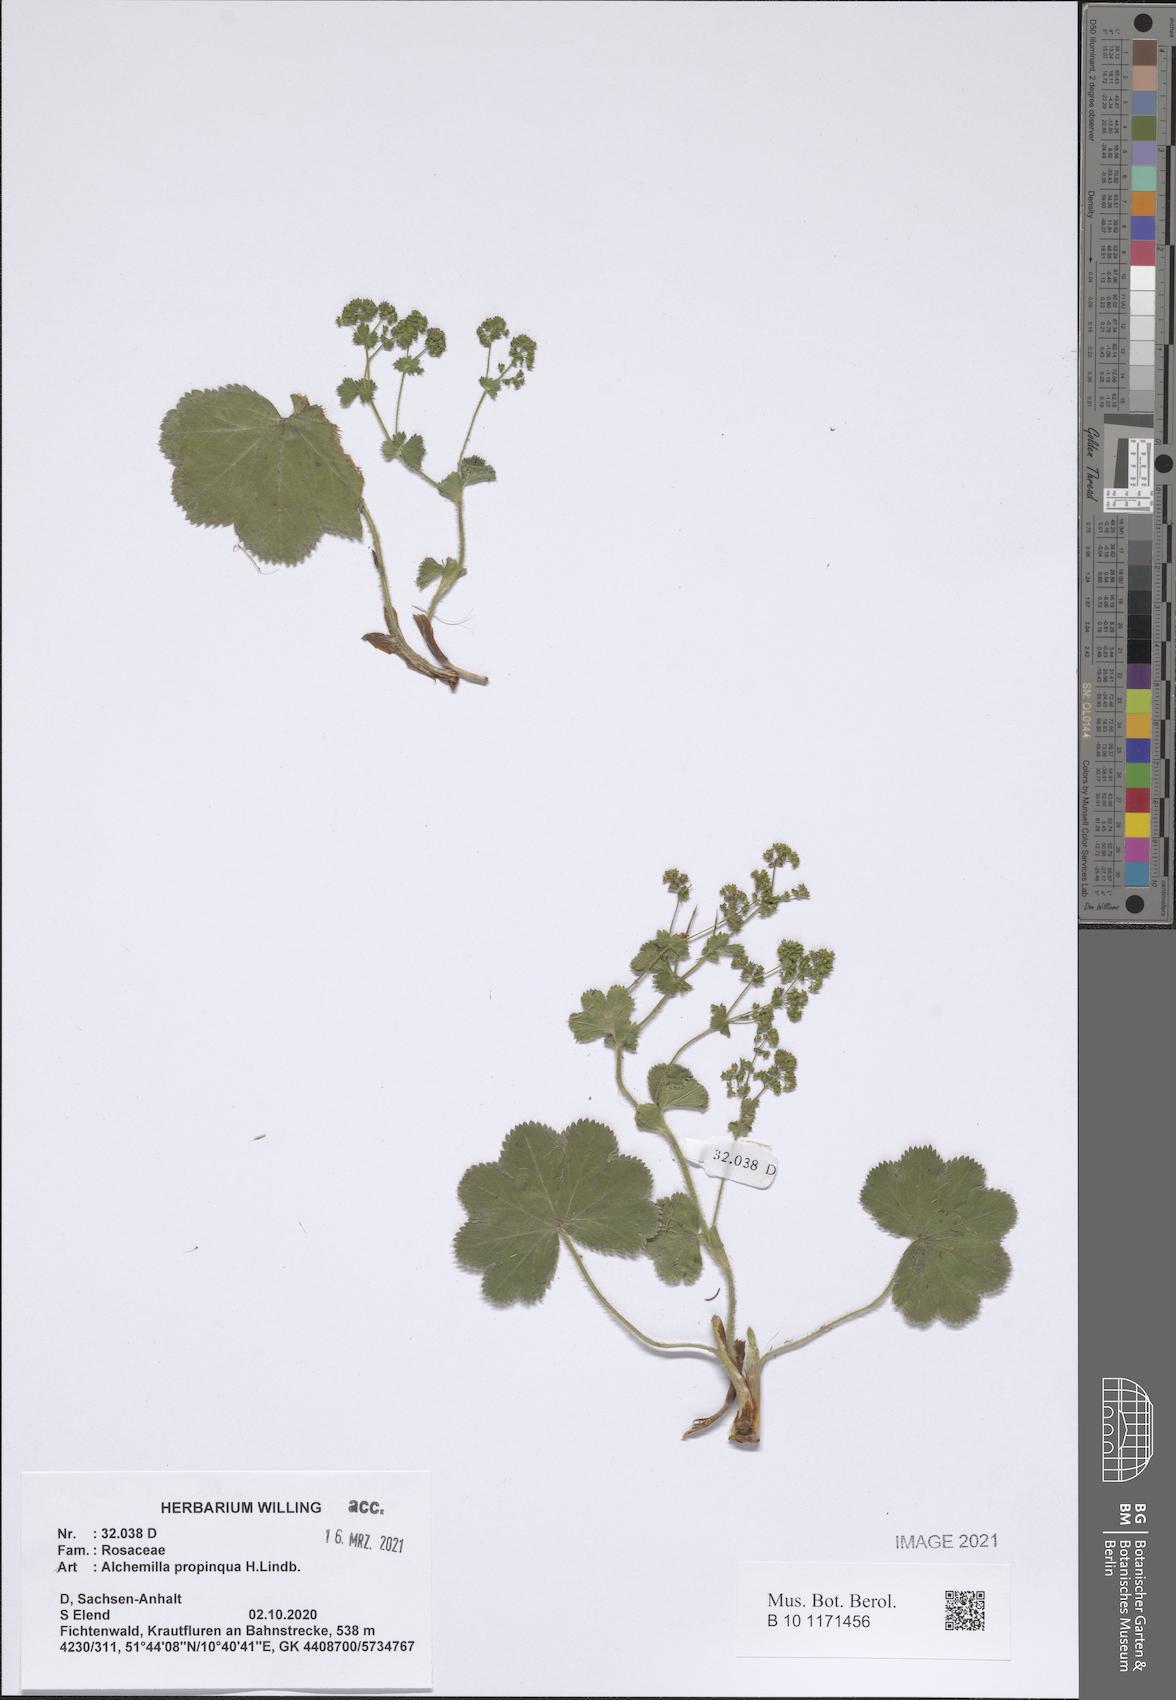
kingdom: Plantae
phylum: Tracheophyta
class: Magnoliopsida
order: Rosales
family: Rosaceae
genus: Alchemilla
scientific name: Alchemilla propinqua
